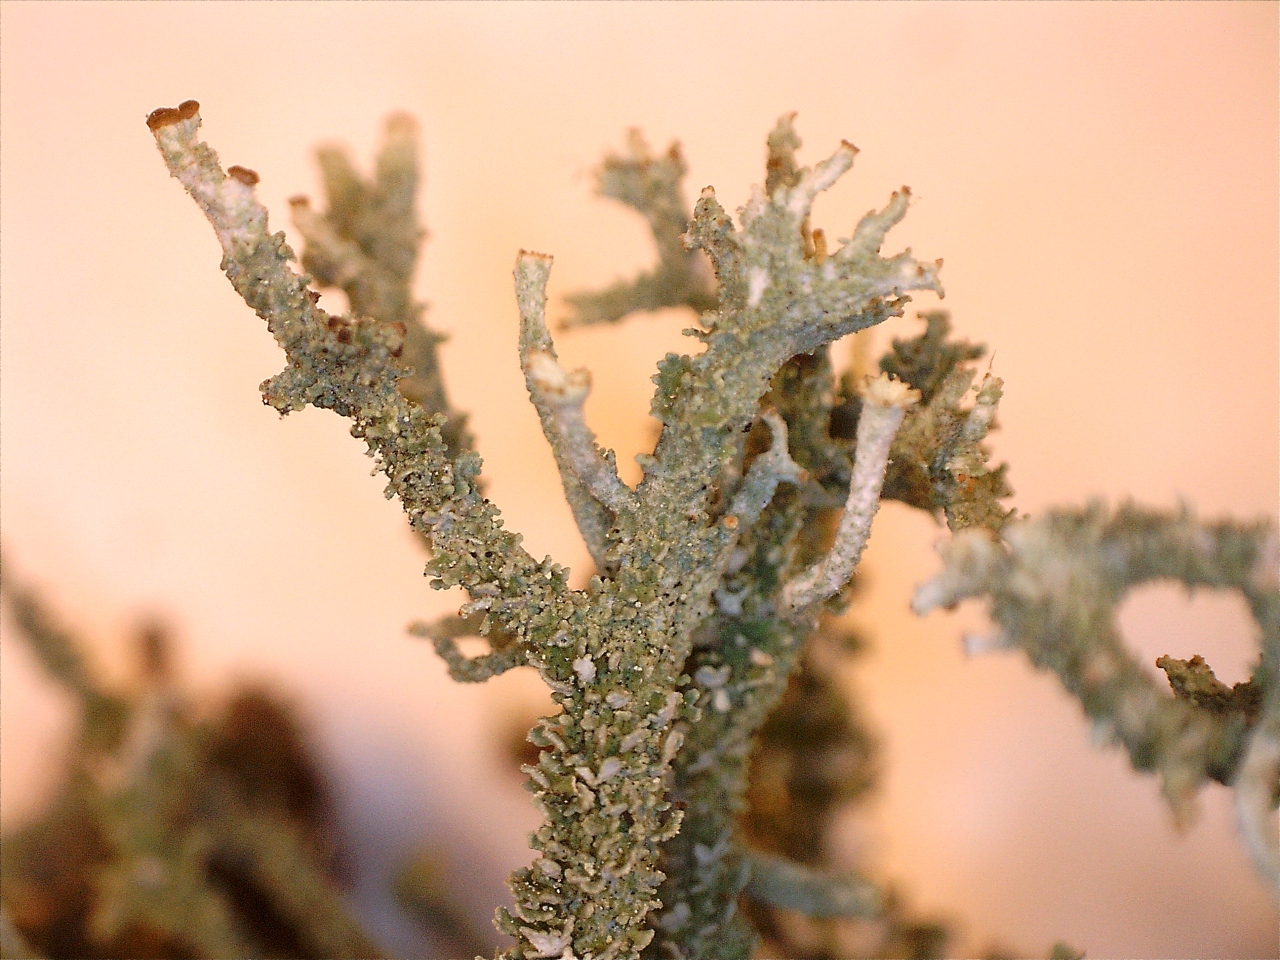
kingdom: Fungi
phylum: Ascomycota
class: Lecanoromycetes
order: Lecanorales
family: Cladoniaceae
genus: Cladonia
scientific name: Cladonia squamosa
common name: skælklædt bægerlav
